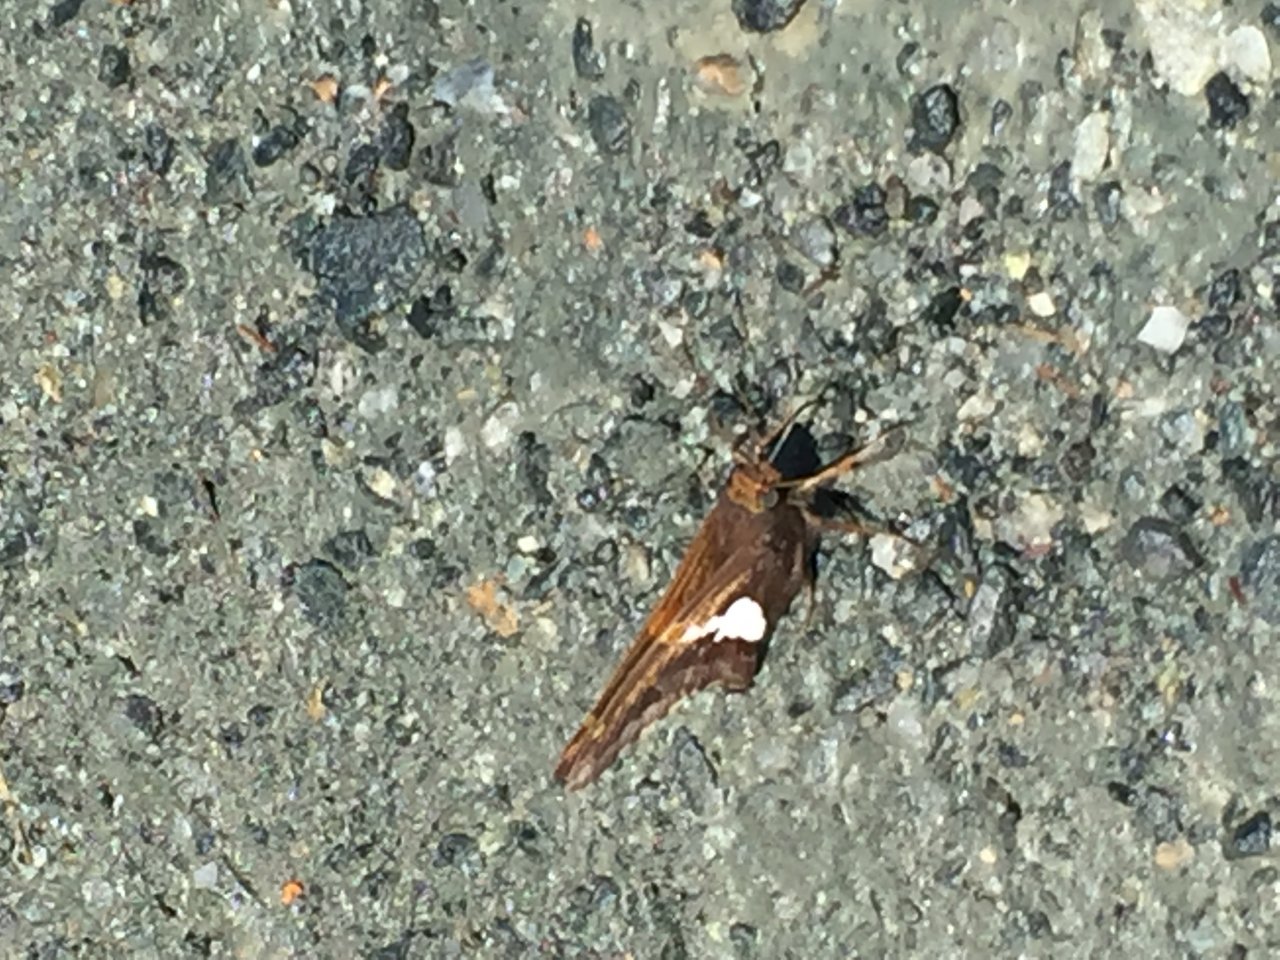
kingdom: Animalia
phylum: Arthropoda
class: Insecta
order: Lepidoptera
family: Hesperiidae
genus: Epargyreus
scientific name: Epargyreus clarus
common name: Silver-spotted Skipper
